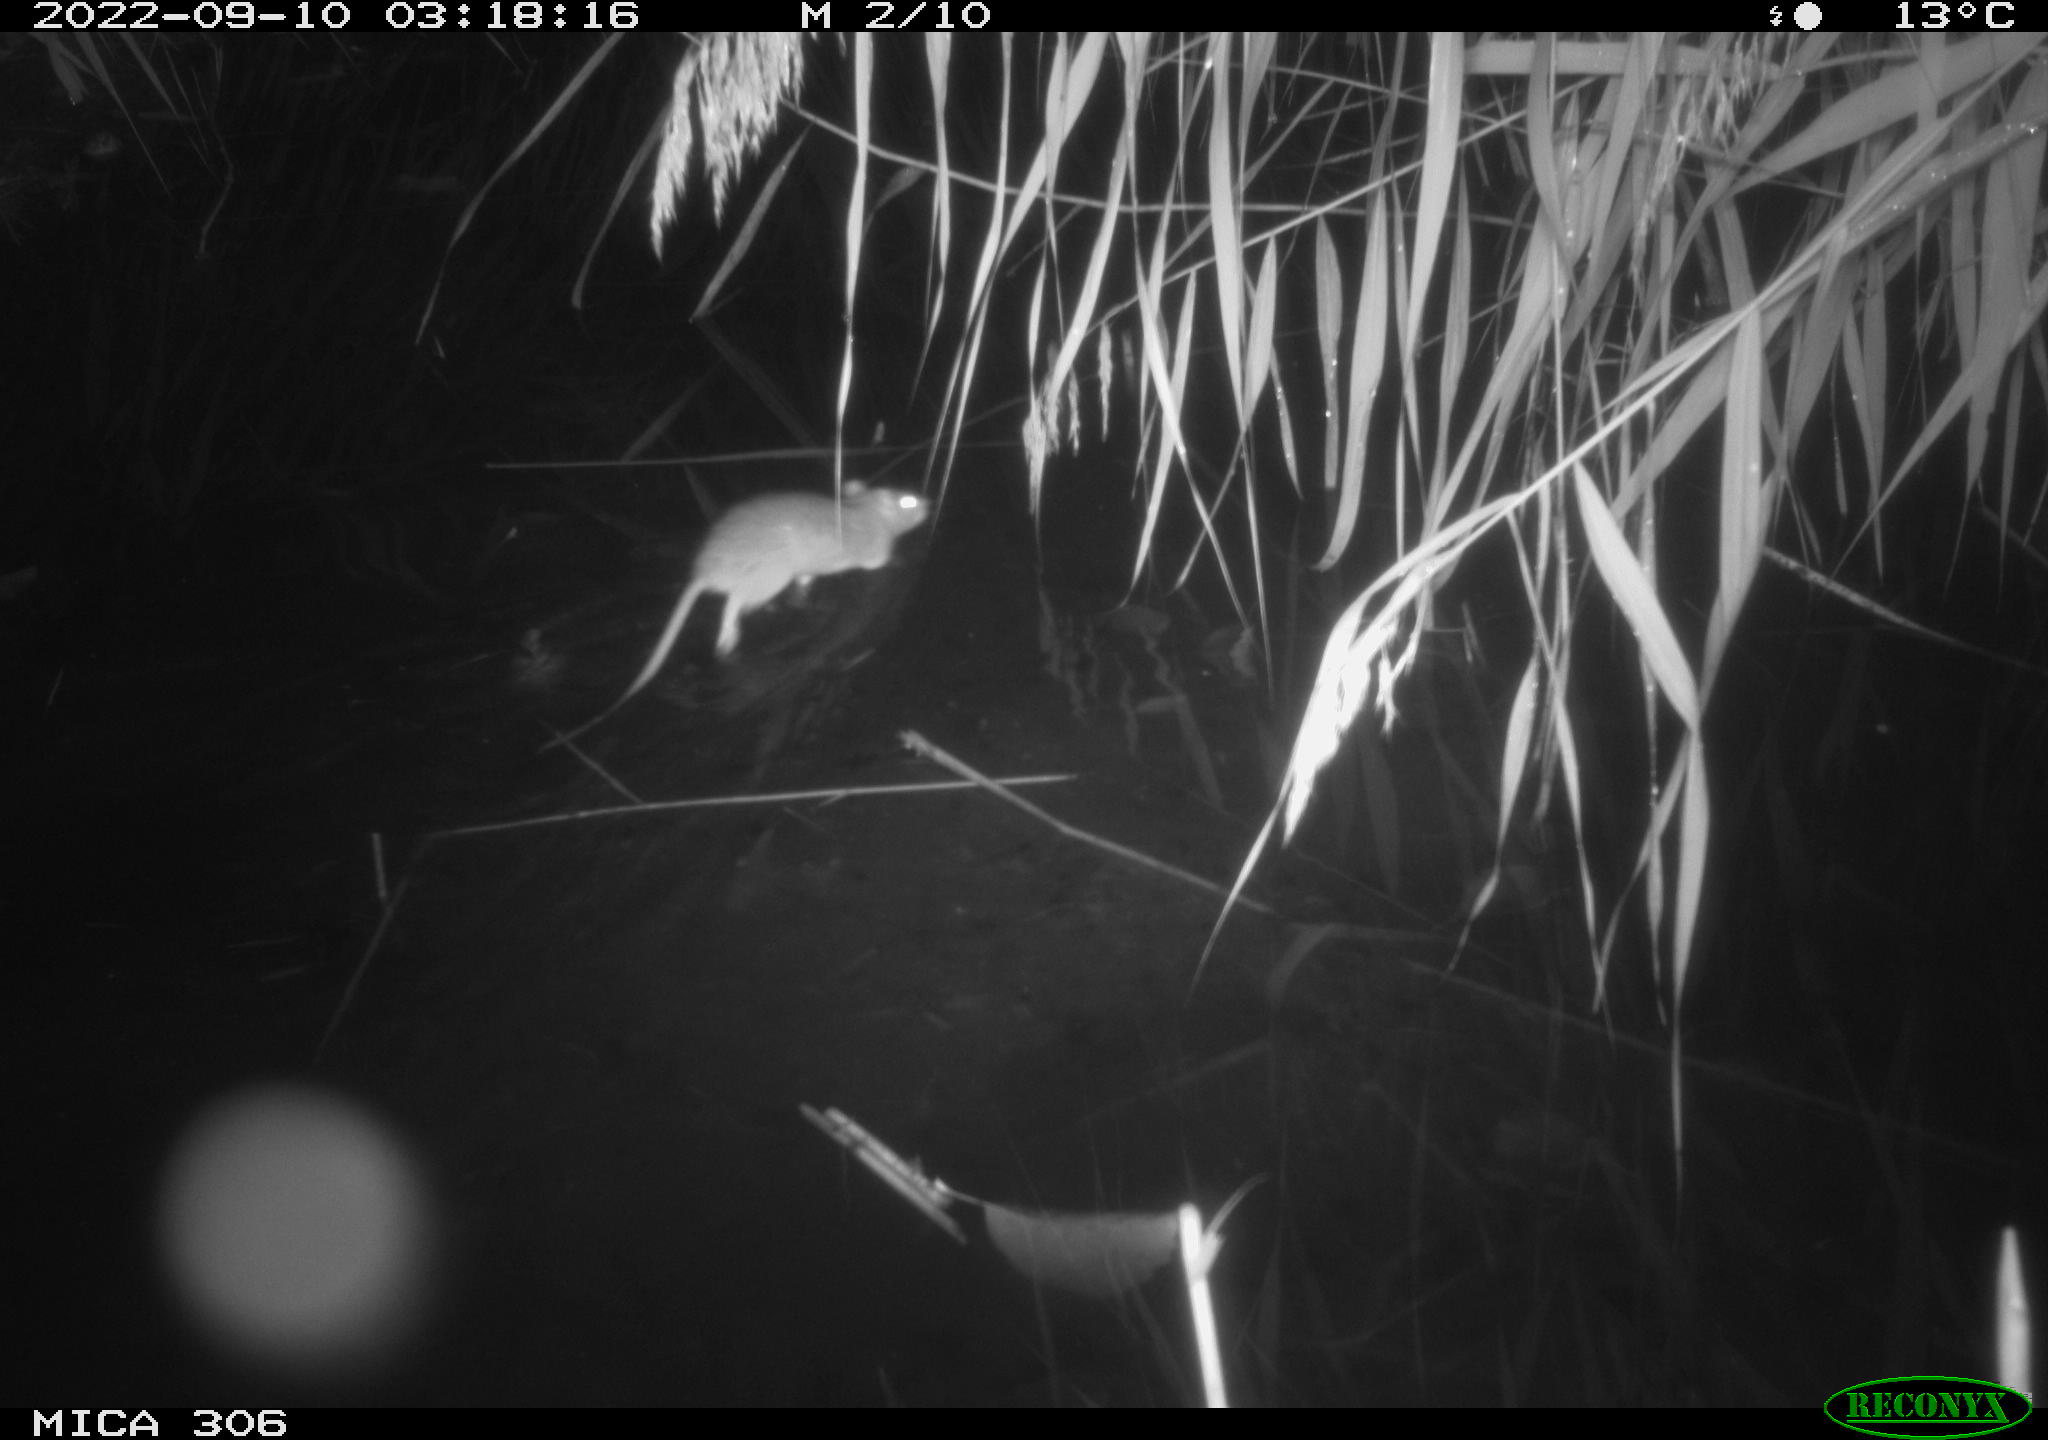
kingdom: Animalia
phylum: Chordata
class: Mammalia
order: Rodentia
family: Muridae
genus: Rattus
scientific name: Rattus norvegicus
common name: Brown rat
